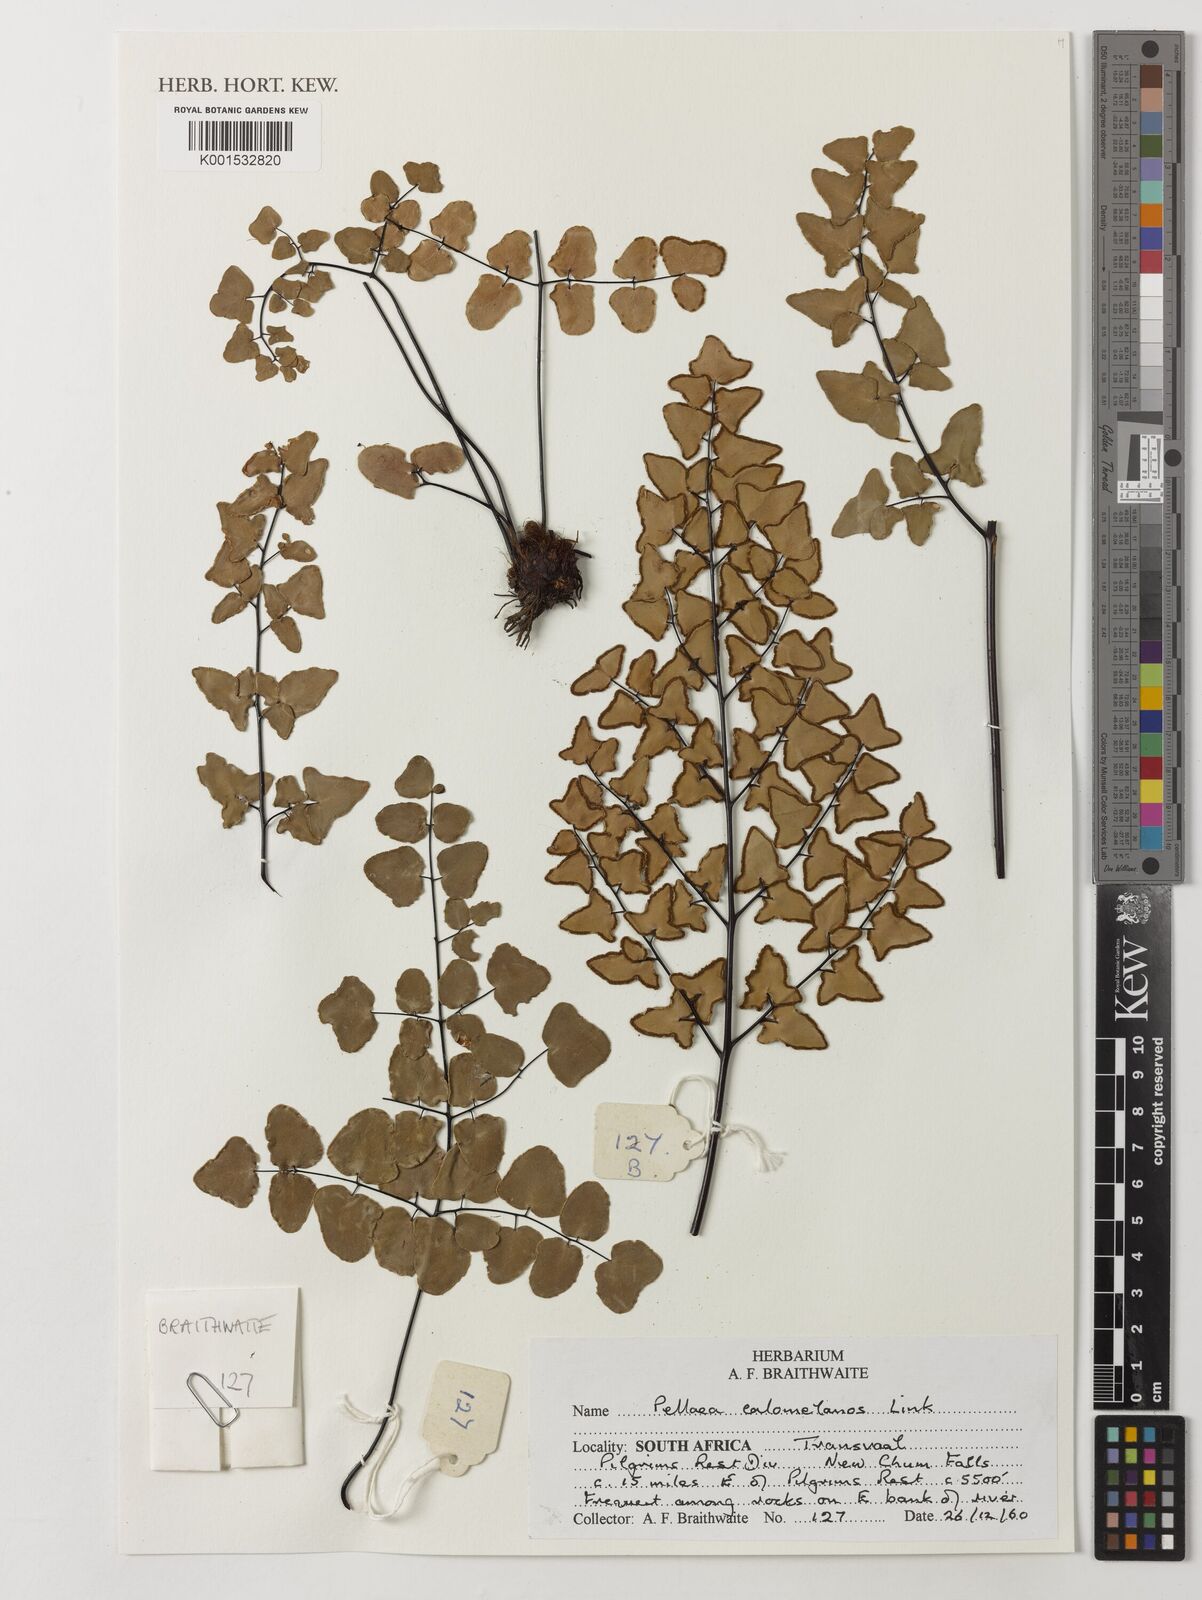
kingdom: Plantae
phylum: Tracheophyta
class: Polypodiopsida
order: Polypodiales
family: Pteridaceae
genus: Pellaea
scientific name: Pellaea calomelanos
